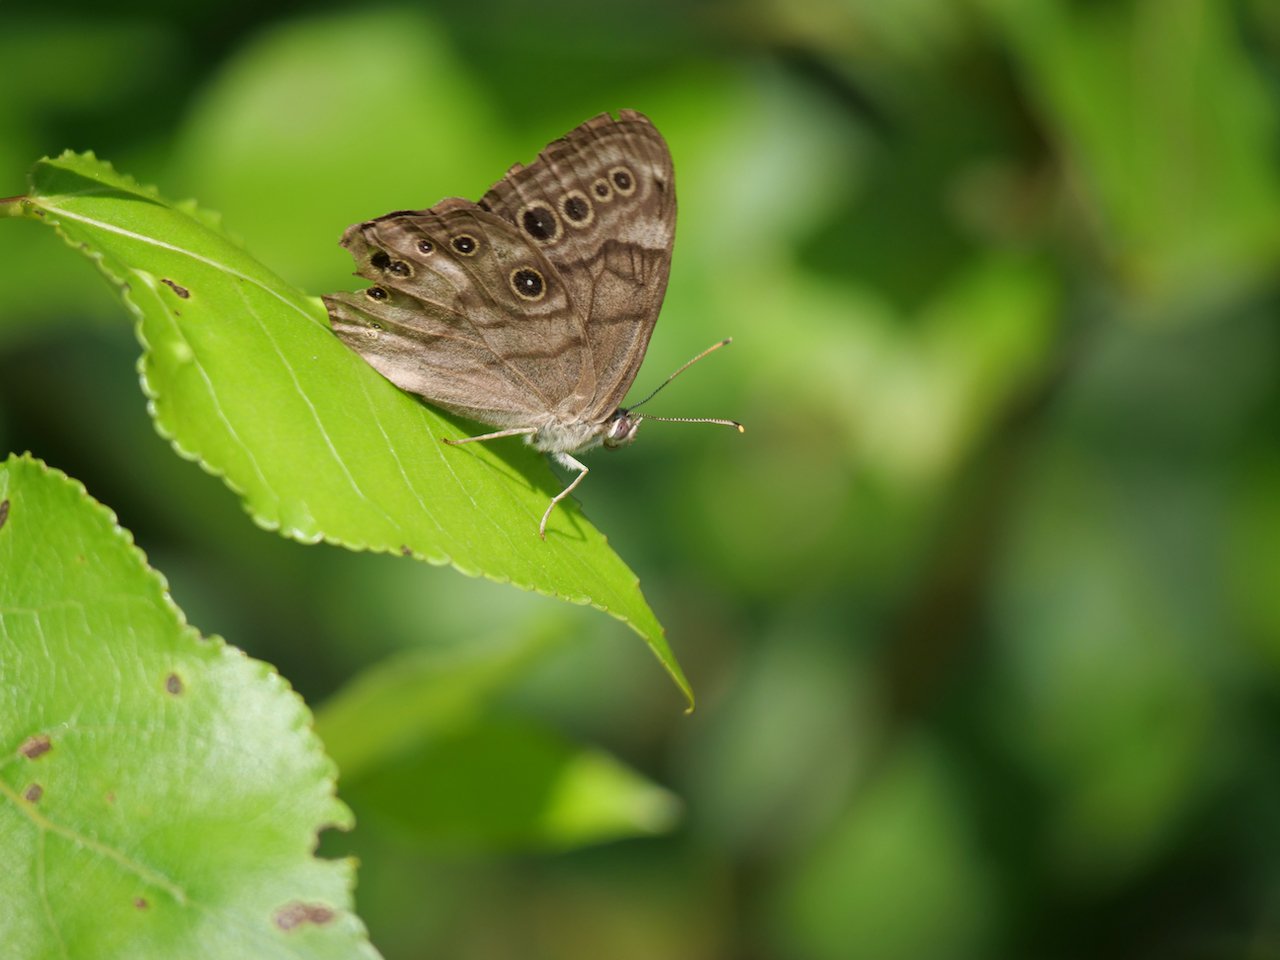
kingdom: Animalia
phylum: Arthropoda
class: Insecta
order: Lepidoptera
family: Nymphalidae
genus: Lethe
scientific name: Lethe anthedon
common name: Northern Pearly-Eye
